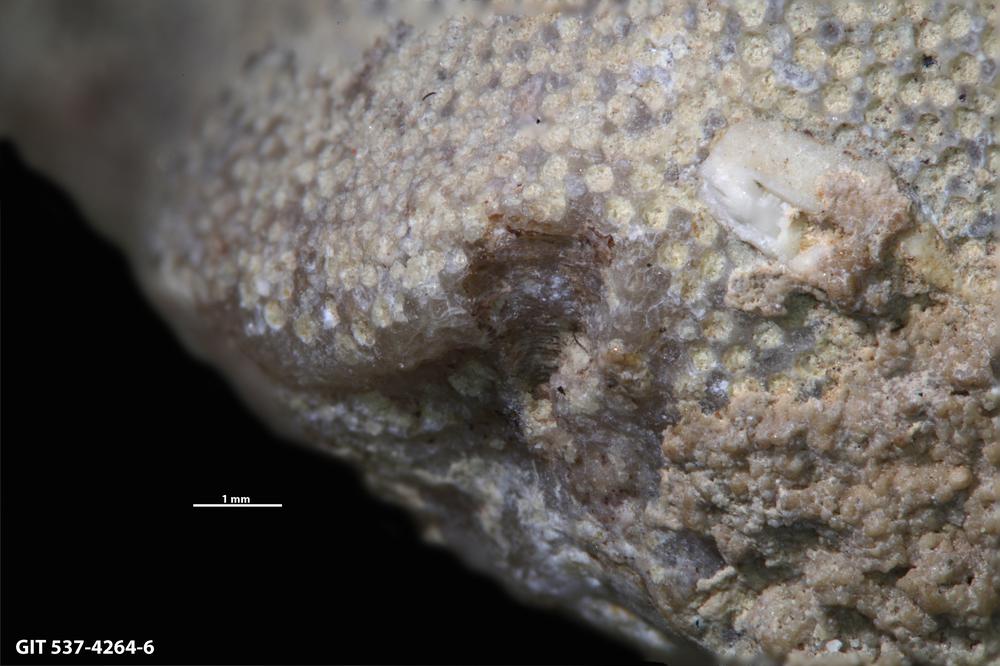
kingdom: Animalia
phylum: Cnidaria
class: Scyphozoa
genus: Climacoconus
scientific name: Climacoconus
